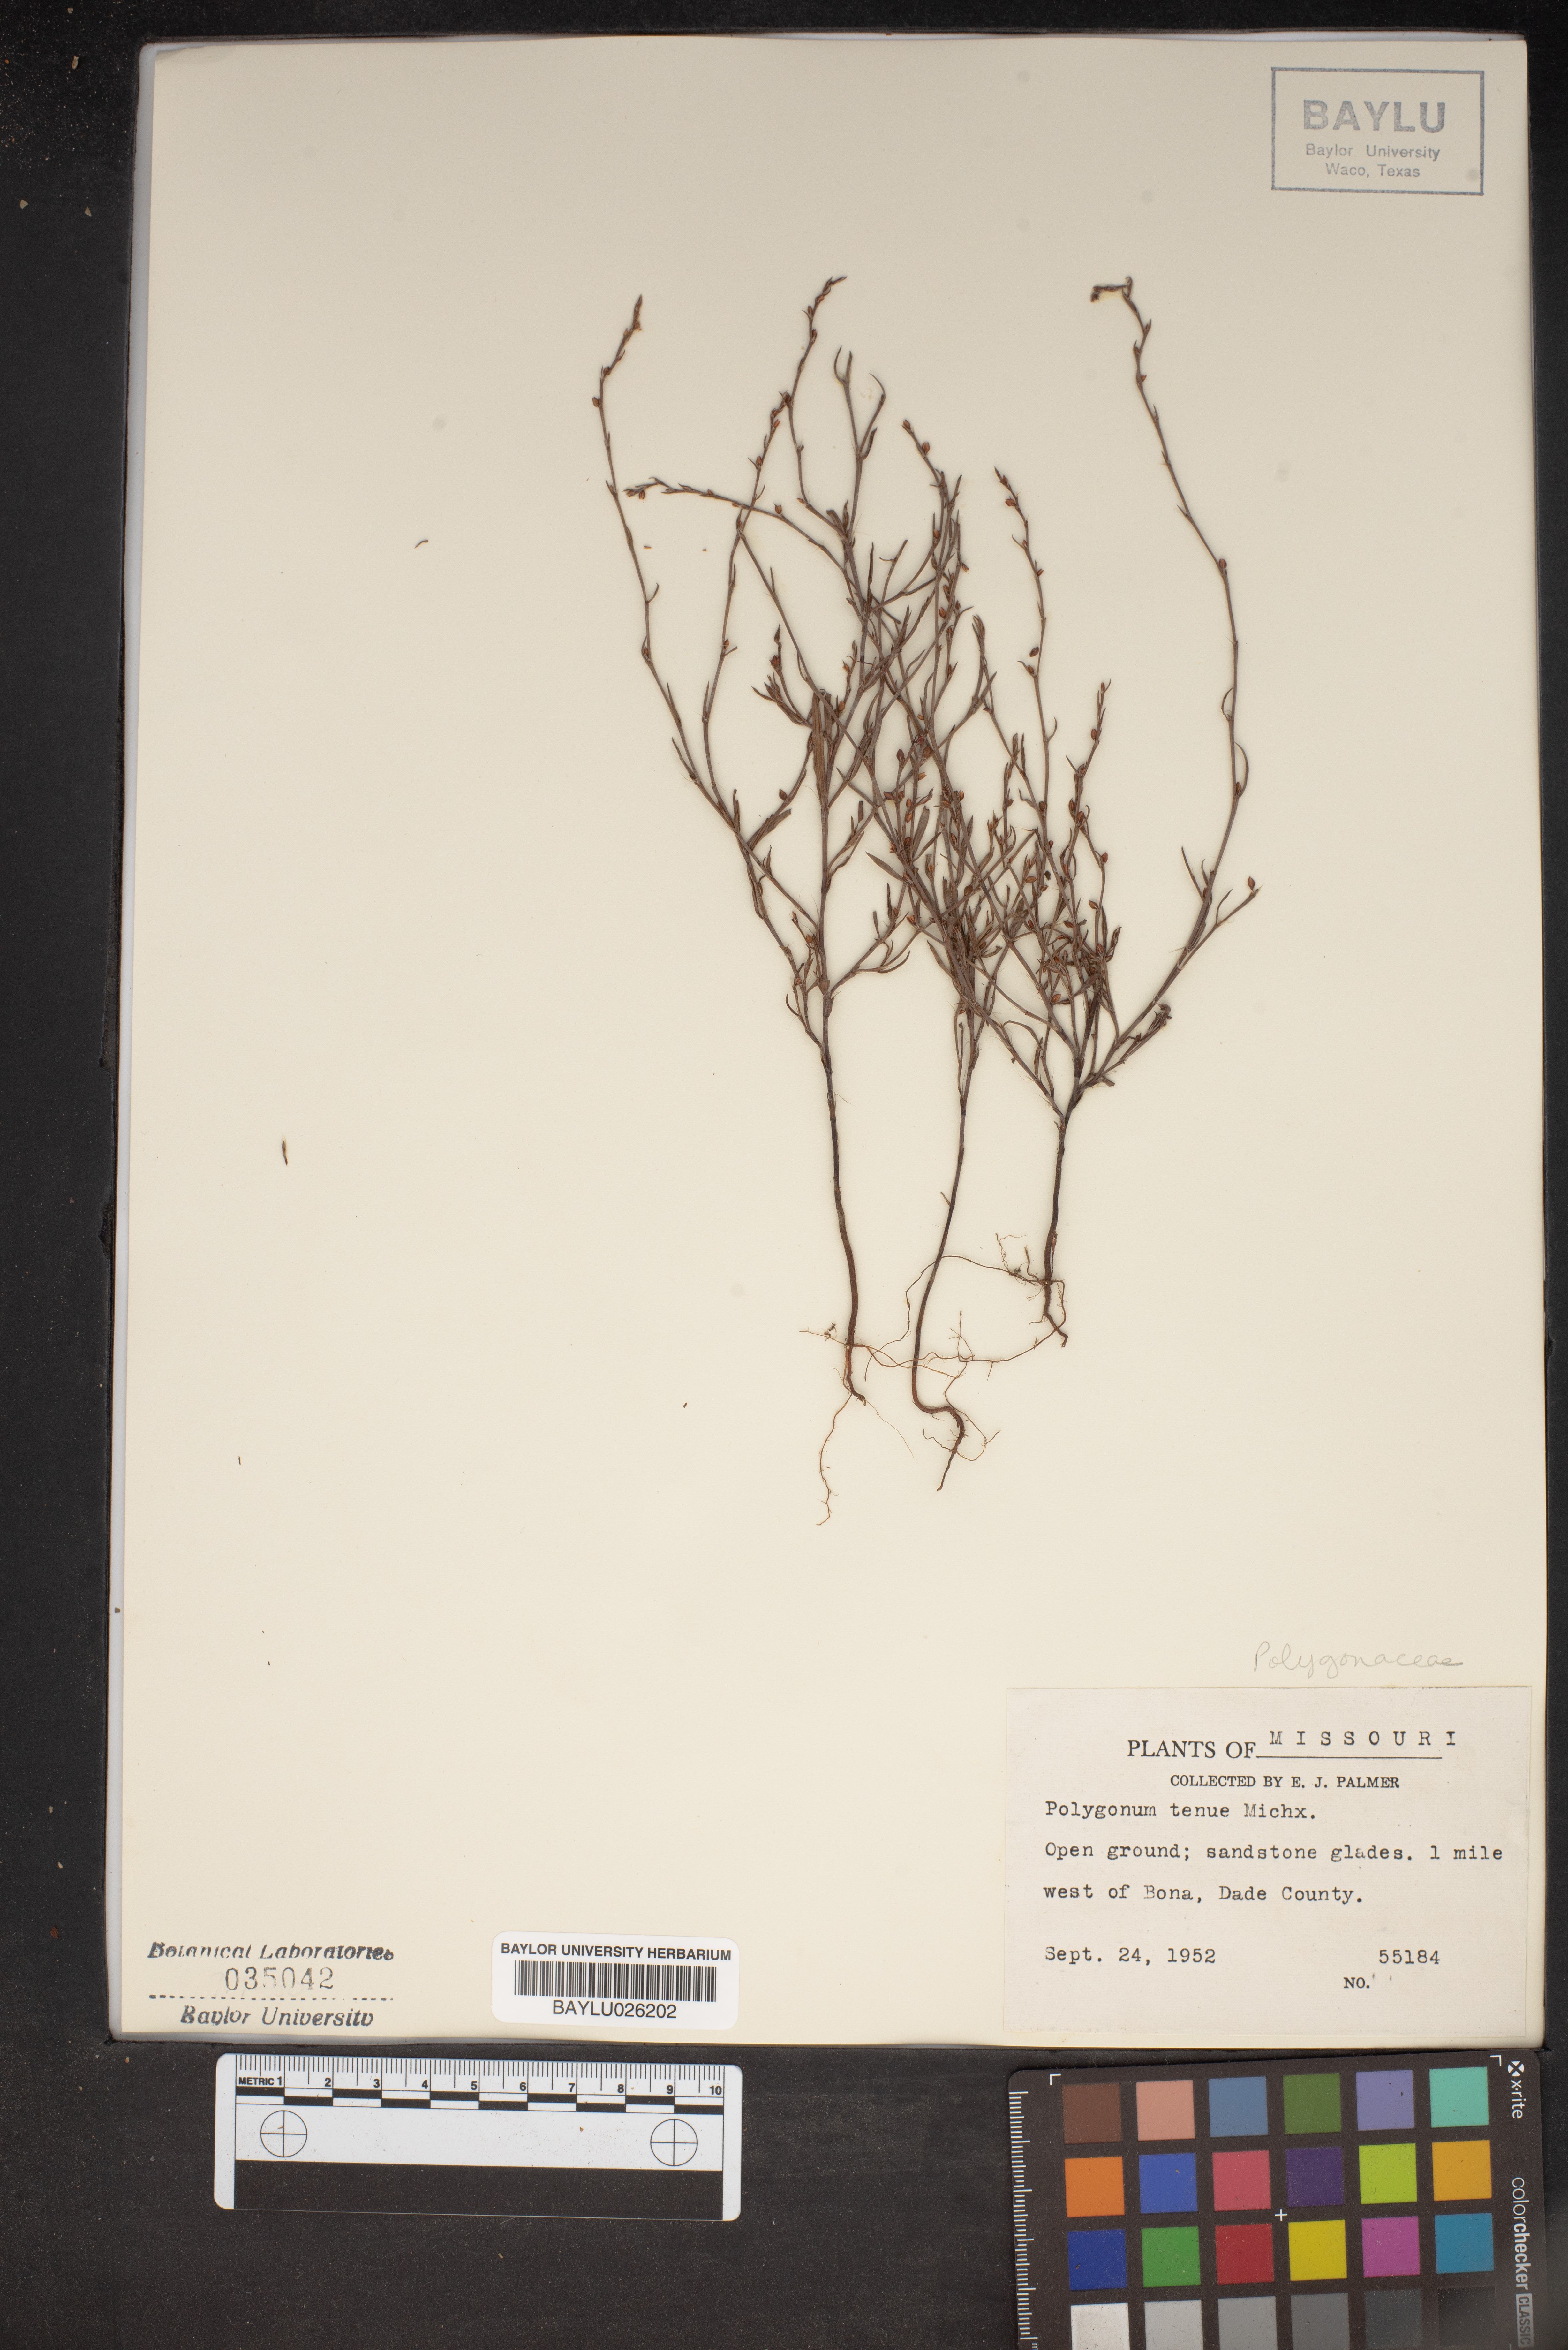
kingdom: Plantae
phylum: Tracheophyta
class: Magnoliopsida
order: Caryophyllales
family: Polygonaceae
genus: Polygonum
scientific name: Polygonum tenue
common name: Pleat-leaved knotweed
